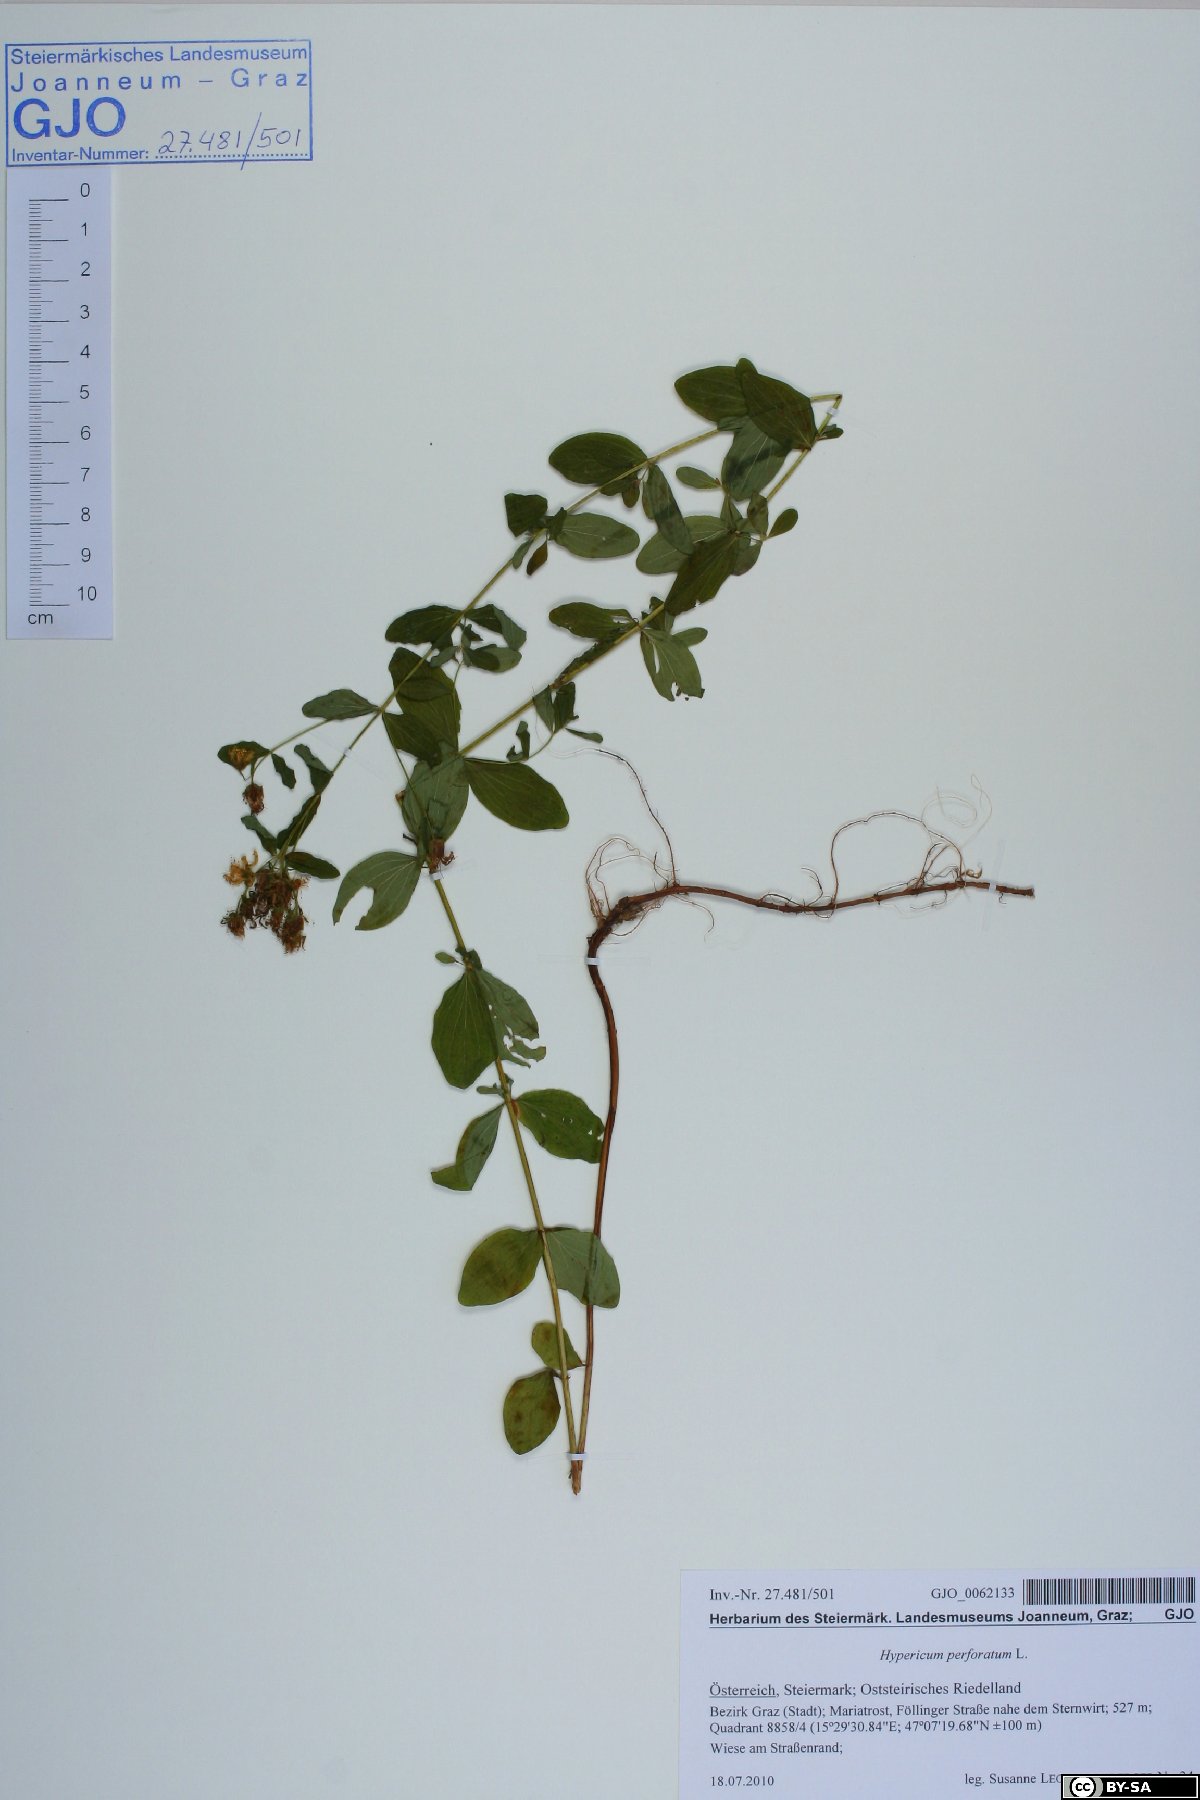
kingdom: Plantae
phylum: Tracheophyta
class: Magnoliopsida
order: Malpighiales
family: Hypericaceae
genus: Hypericum
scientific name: Hypericum perforatum
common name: Common st. johnswort
